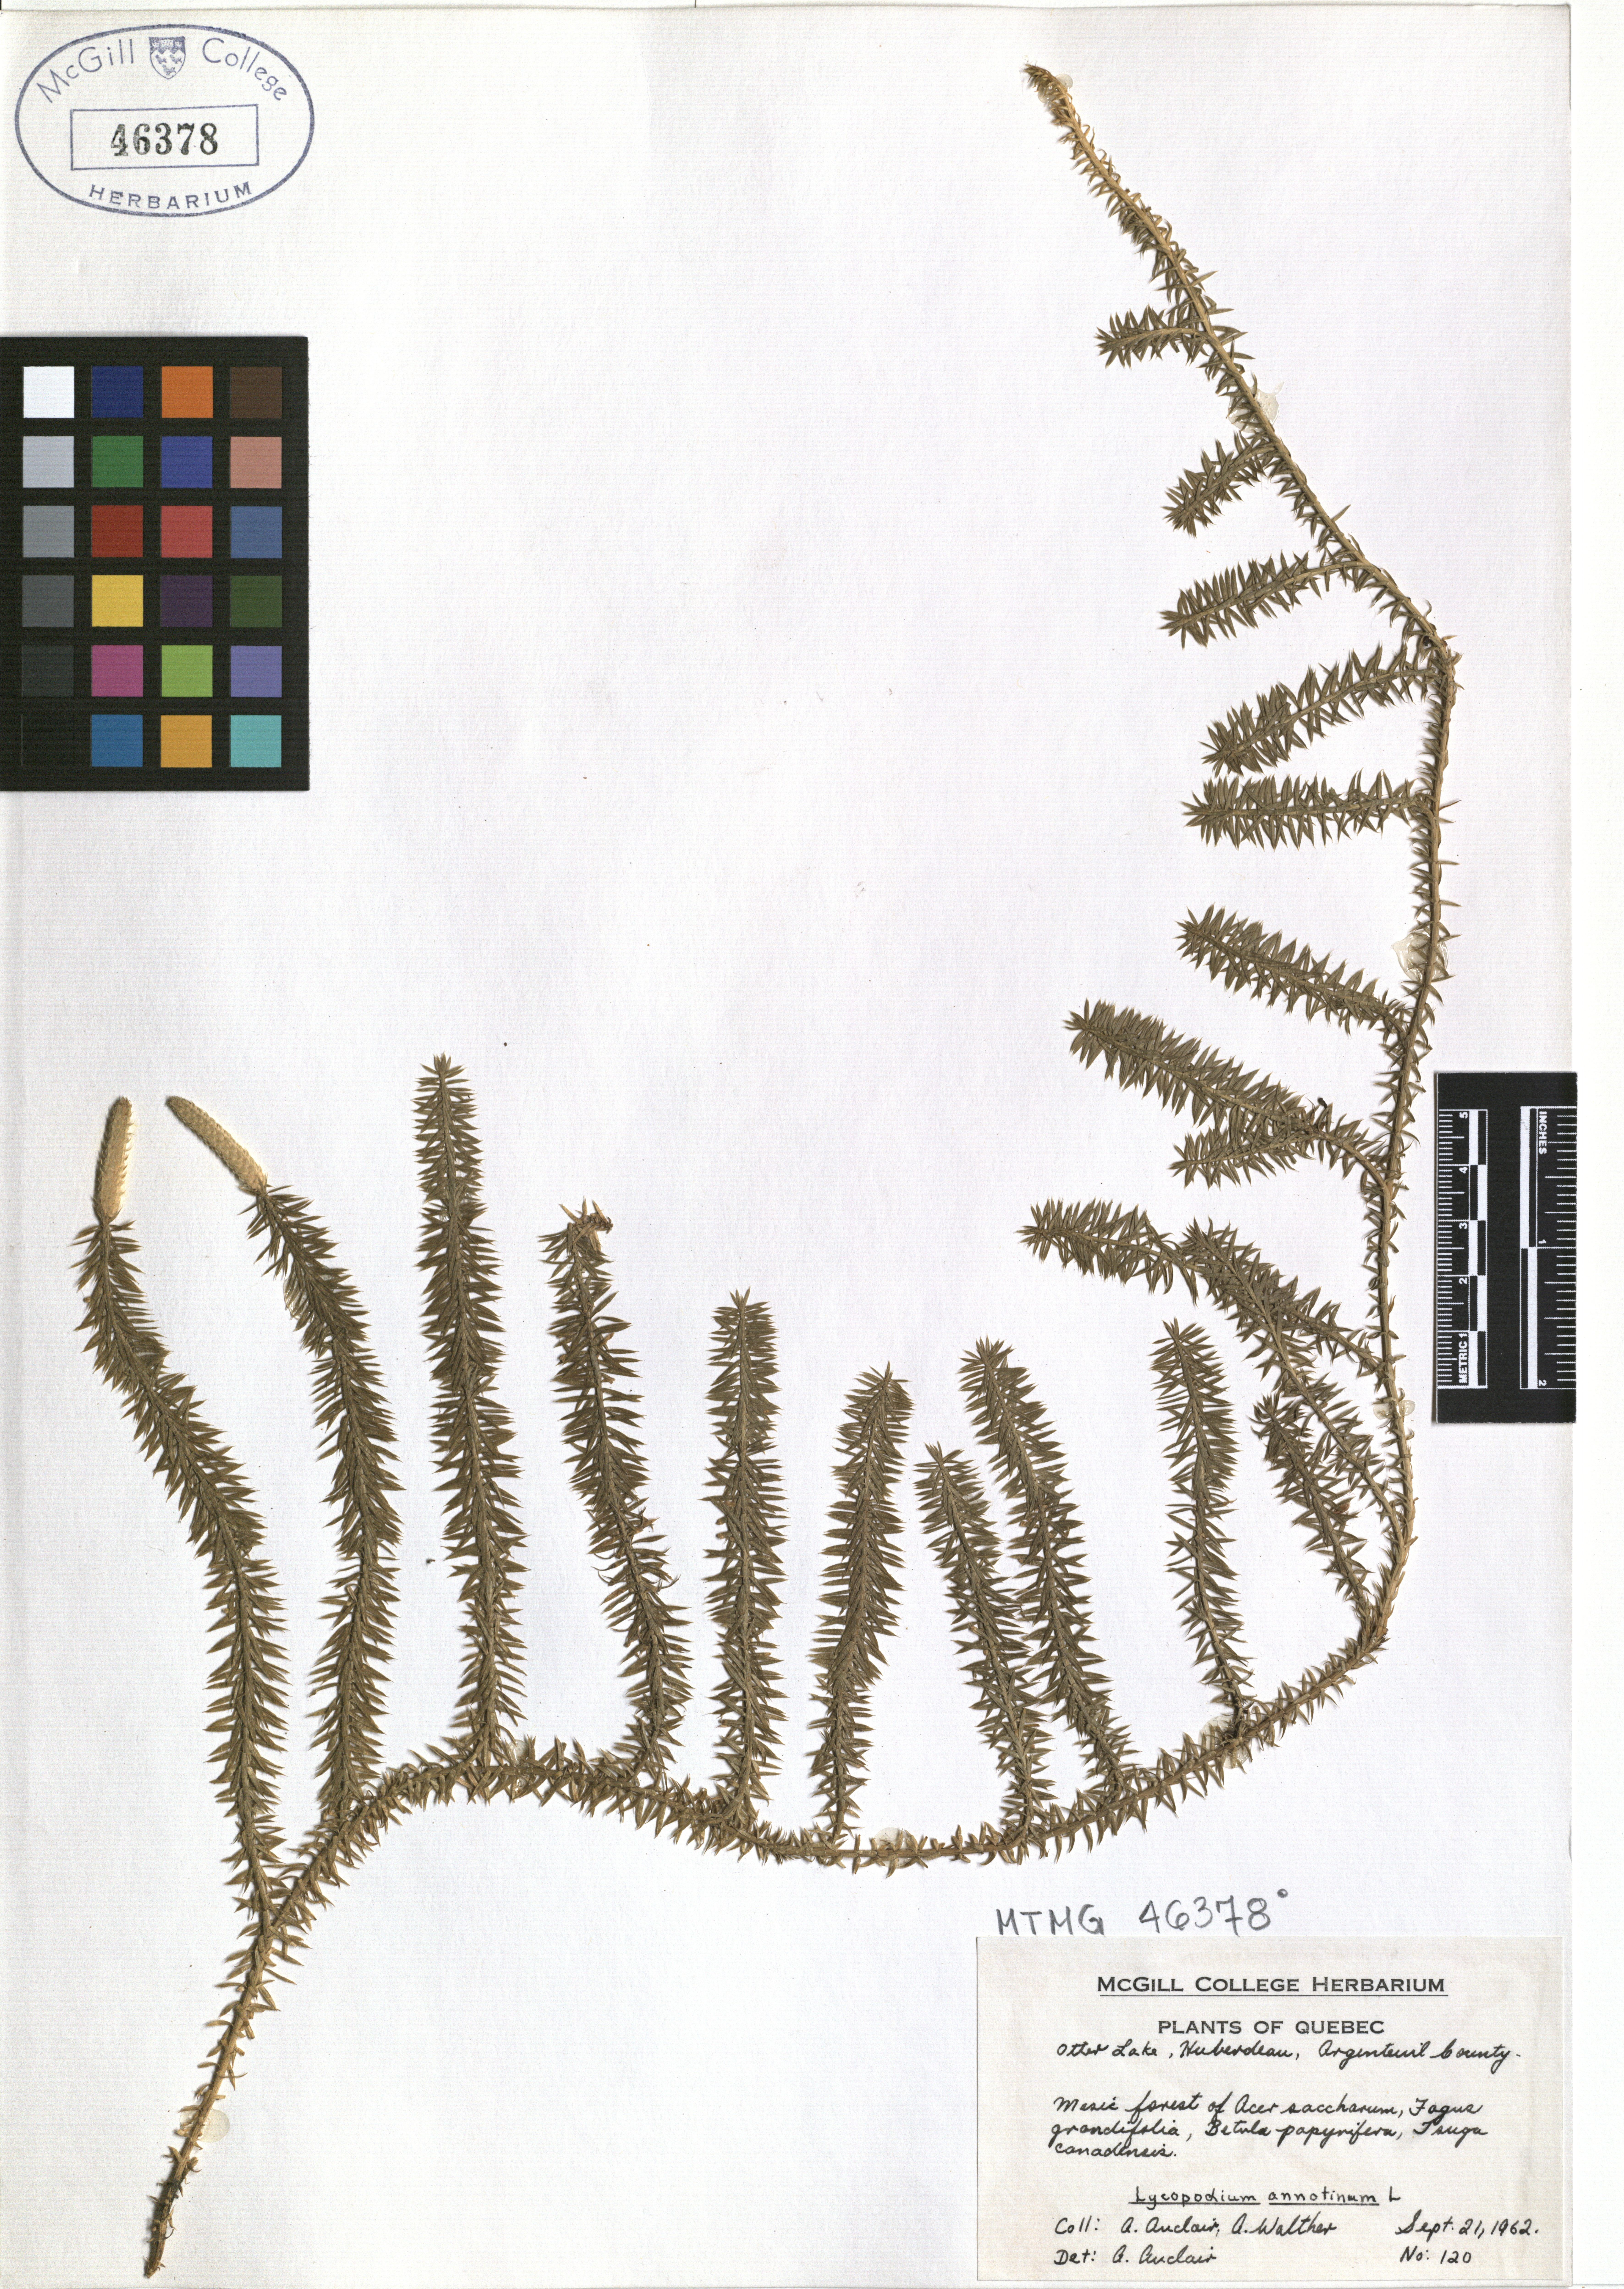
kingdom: Plantae
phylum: Tracheophyta
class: Lycopodiopsida
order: Lycopodiales
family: Lycopodiaceae
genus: Spinulum
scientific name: Spinulum annotinum
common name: Interrupted club-moss
